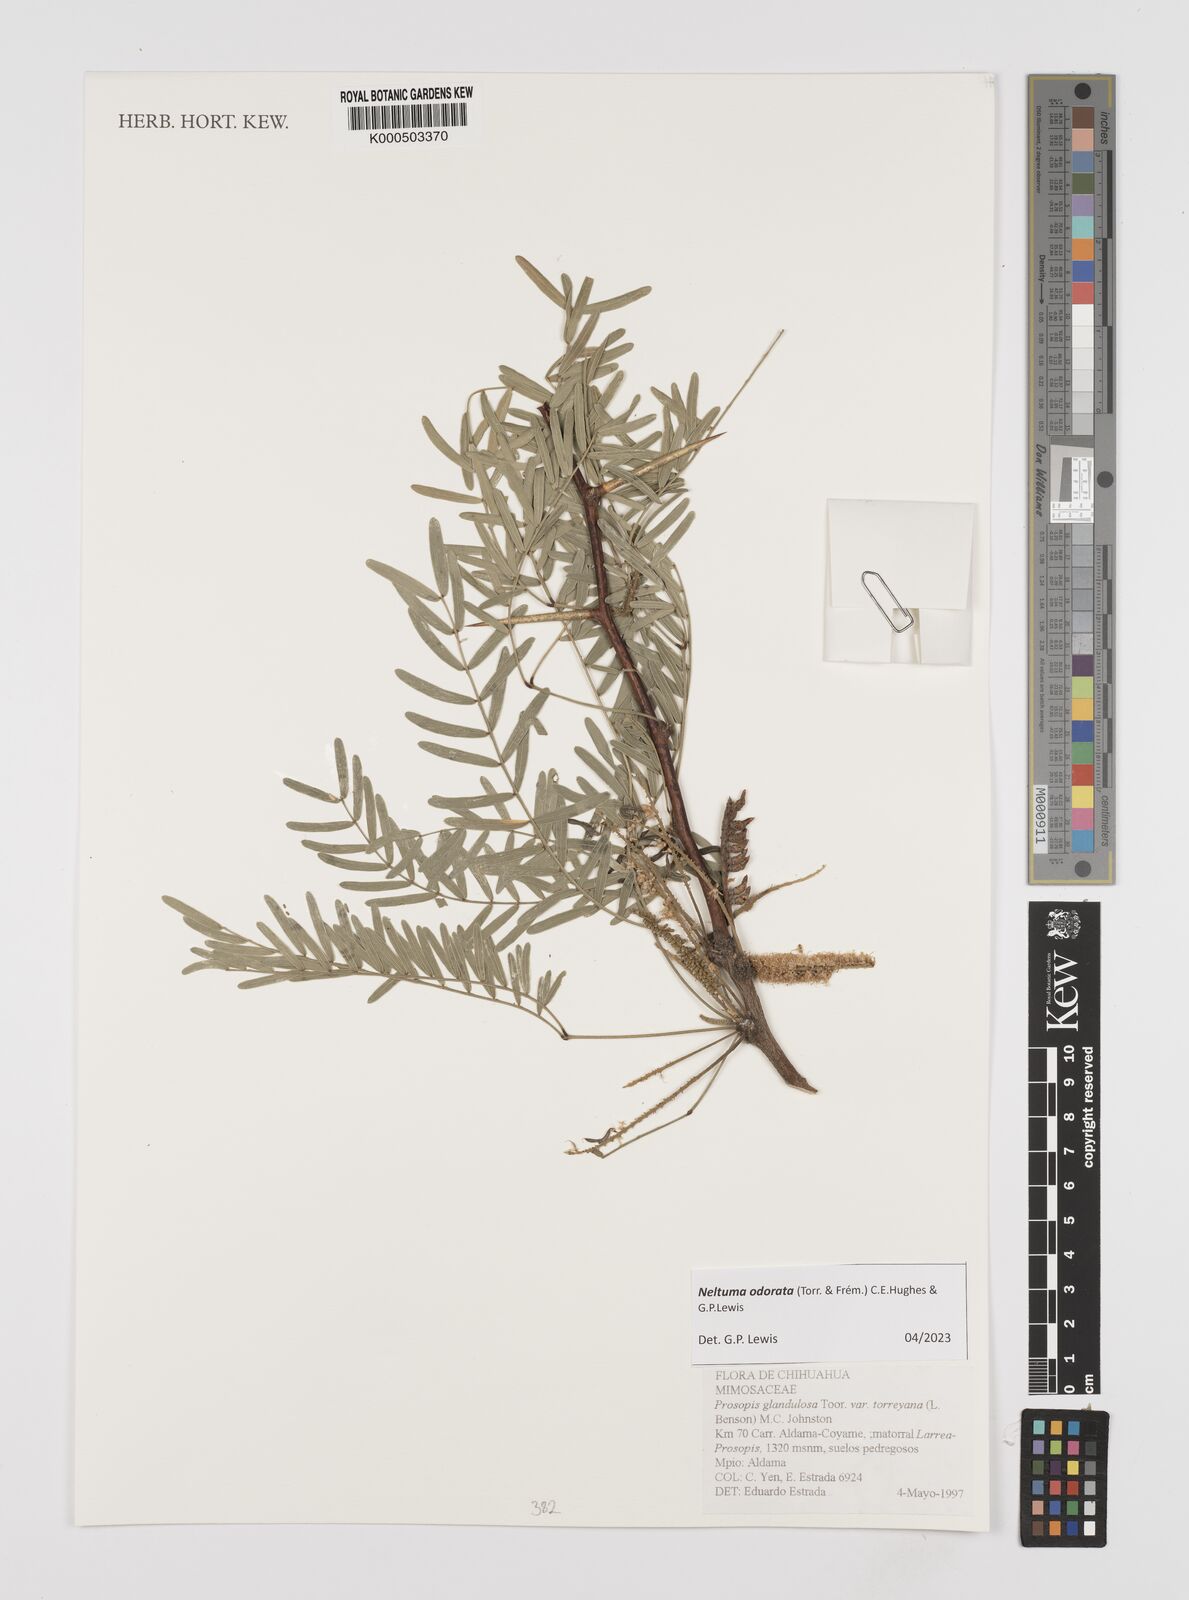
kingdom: Plantae
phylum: Tracheophyta
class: Magnoliopsida
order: Fabales
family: Fabaceae
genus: Prosopis
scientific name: Prosopis glandulosa
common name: Honey mesquite
